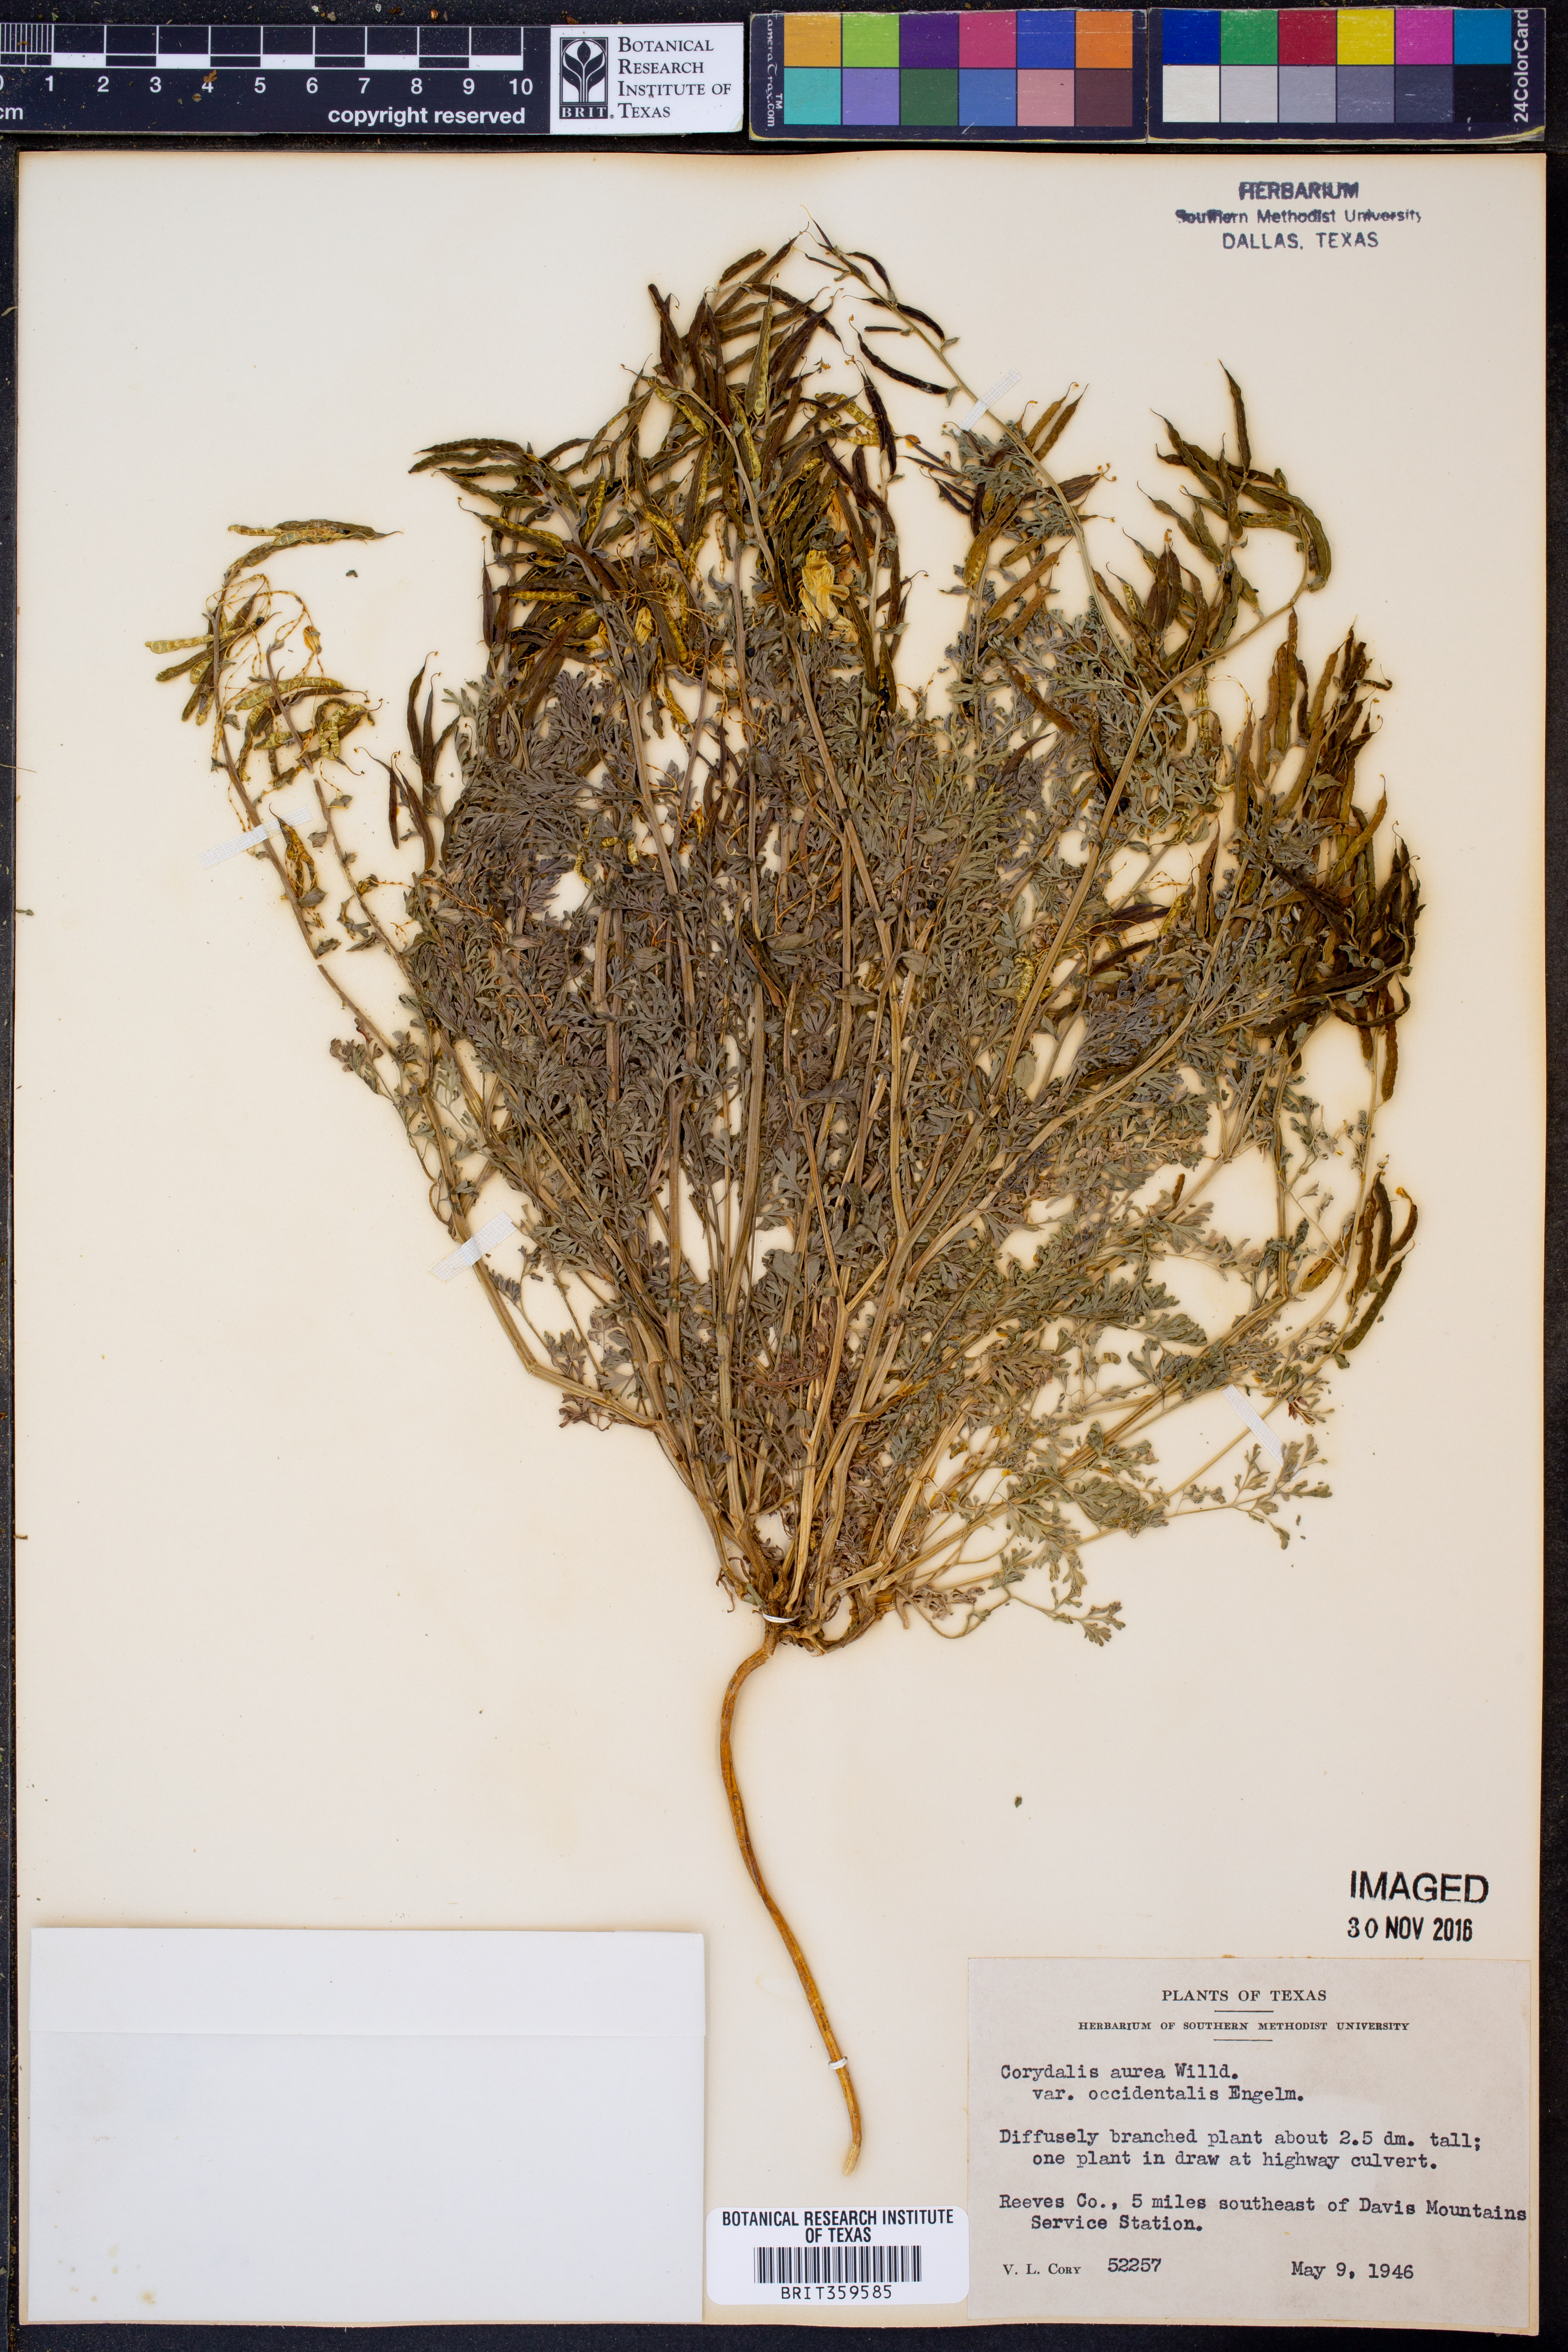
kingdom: Plantae
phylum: Tracheophyta
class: Magnoliopsida
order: Ranunculales
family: Papaveraceae
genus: Corydalis
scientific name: Corydalis curvisiliqua
